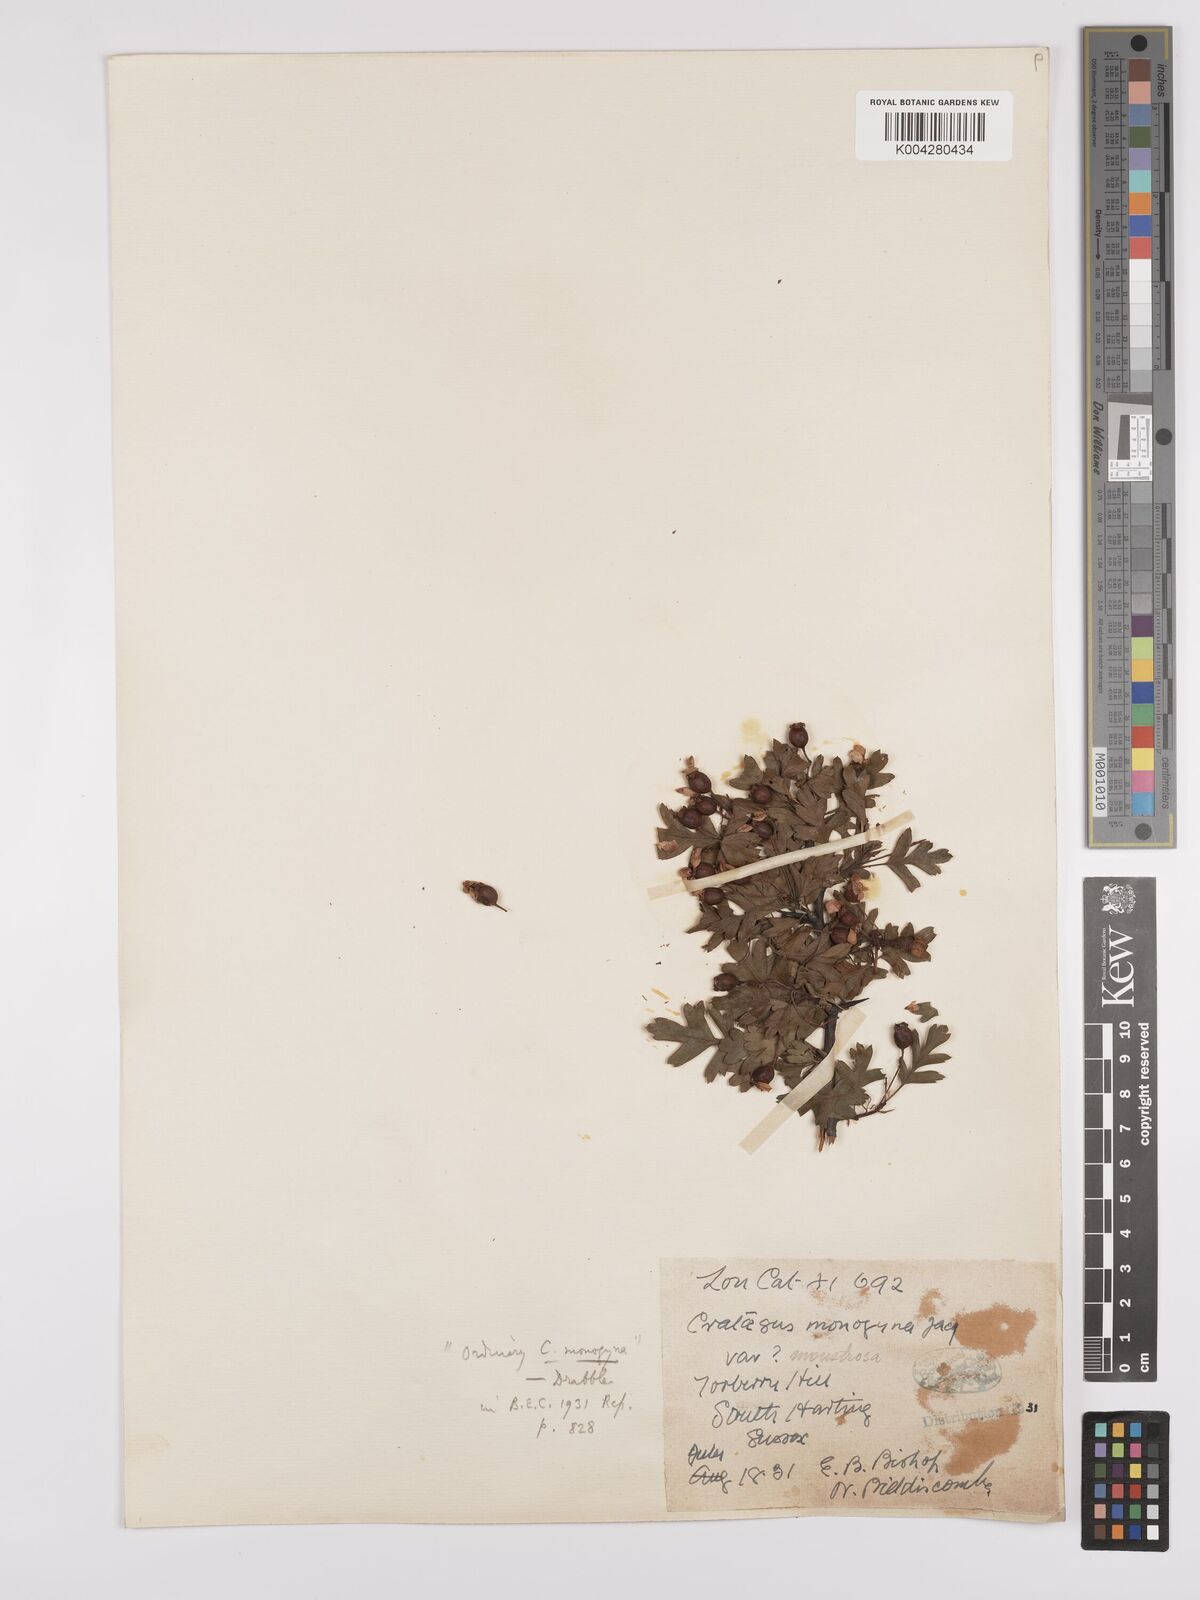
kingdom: Plantae
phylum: Tracheophyta
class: Magnoliopsida
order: Rosales
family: Rosaceae
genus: Crataegus
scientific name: Crataegus monogyna
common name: Hawthorn
